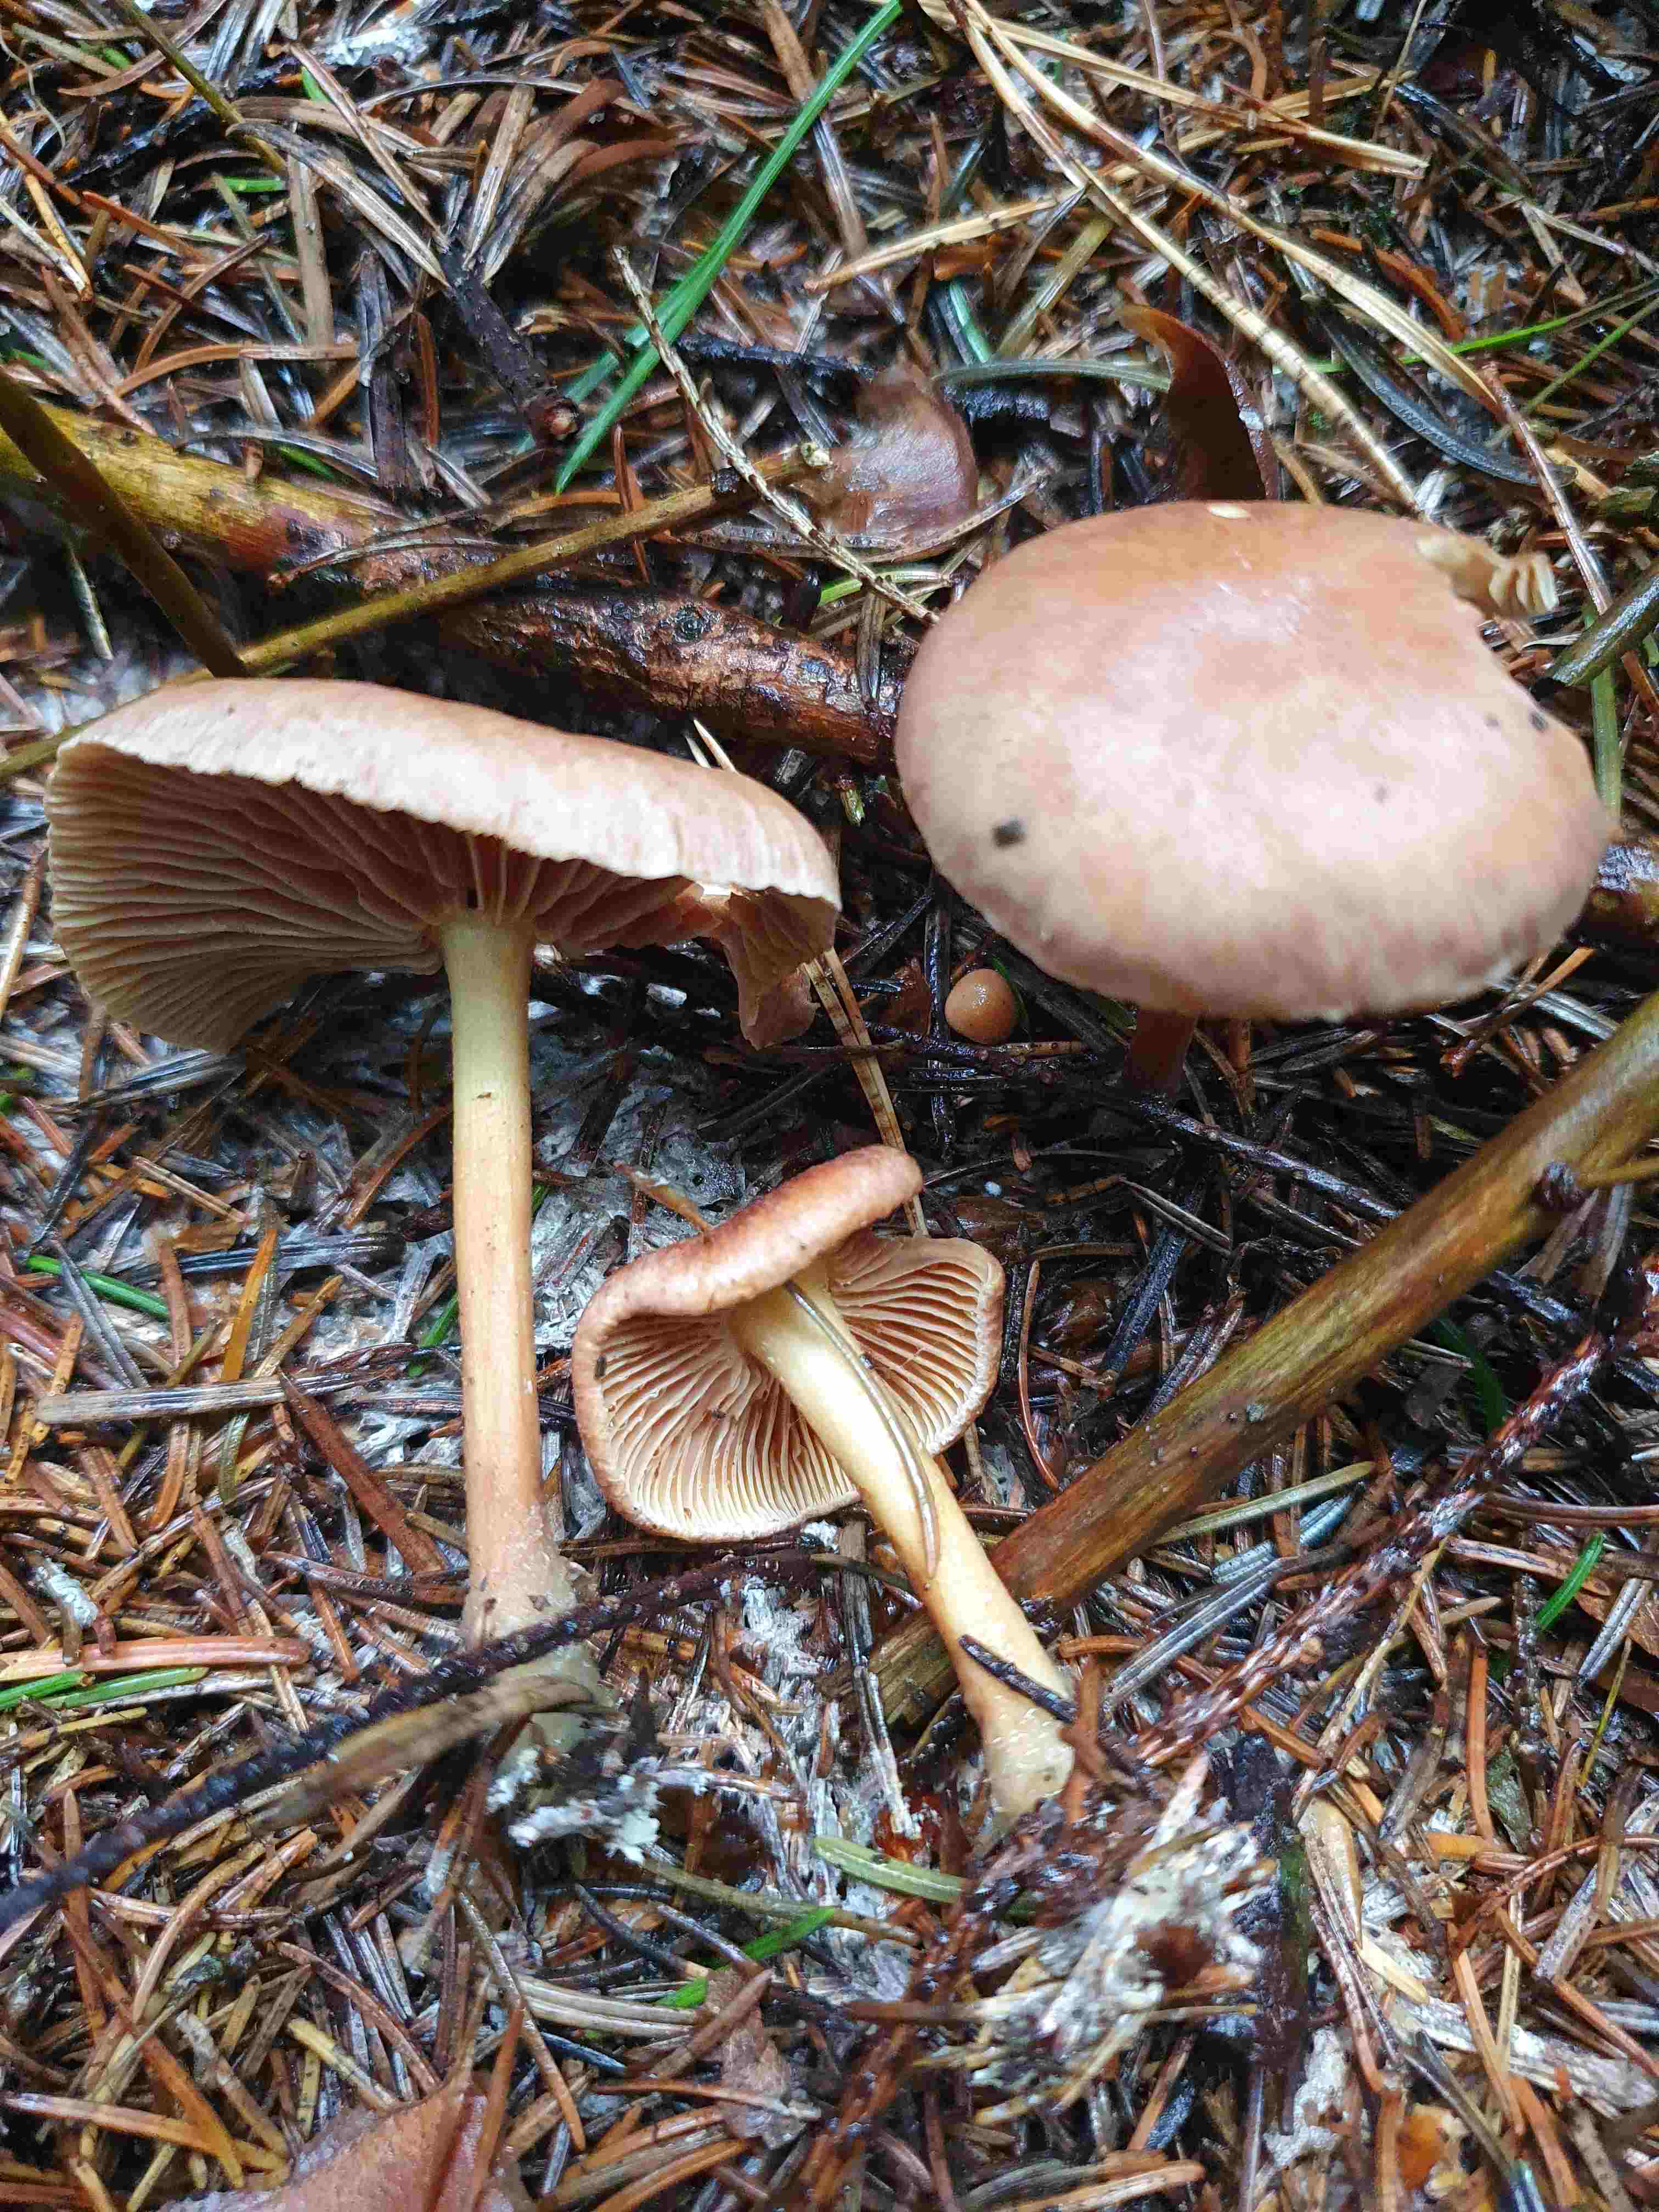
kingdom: Fungi
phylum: Basidiomycota
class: Agaricomycetes
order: Agaricales
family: Omphalotaceae
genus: Collybiopsis
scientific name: Collybiopsis peronata
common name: bestøvlet fladhat
